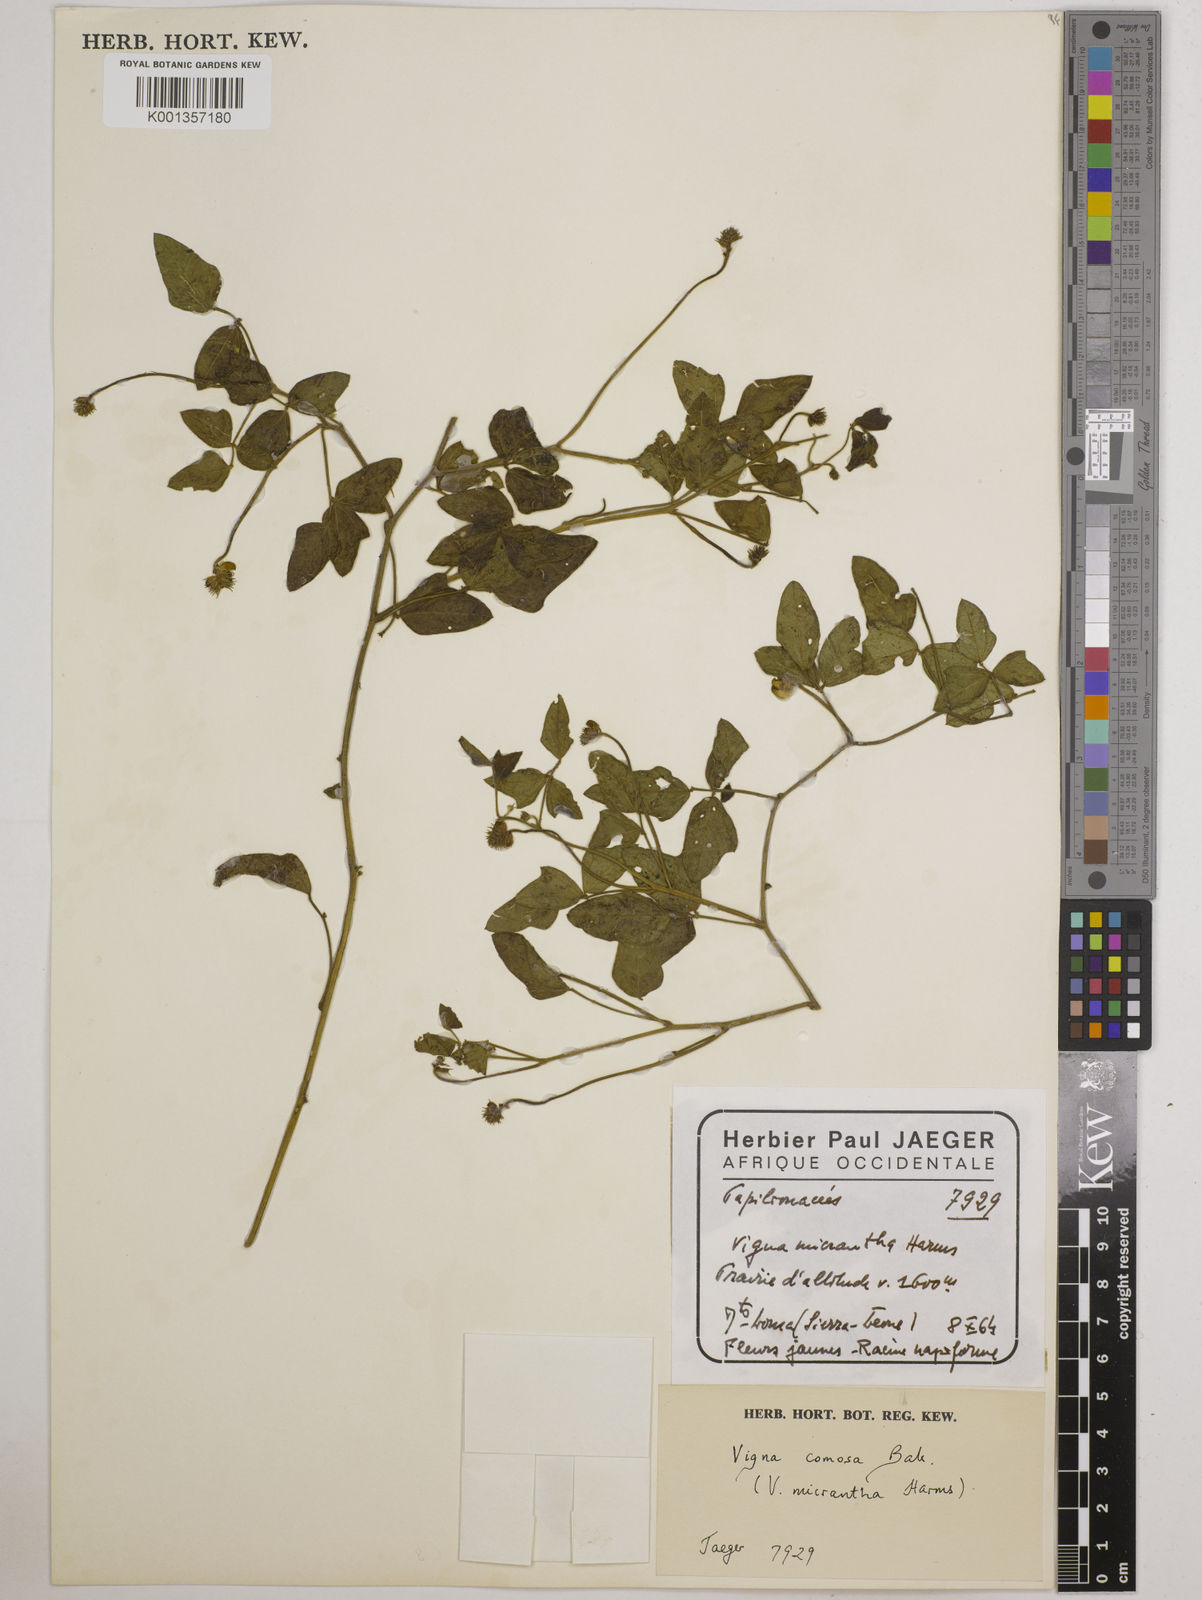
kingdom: Plantae
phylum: Tracheophyta
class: Magnoliopsida
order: Fabales
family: Fabaceae
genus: Vigna
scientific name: Vigna comosa
